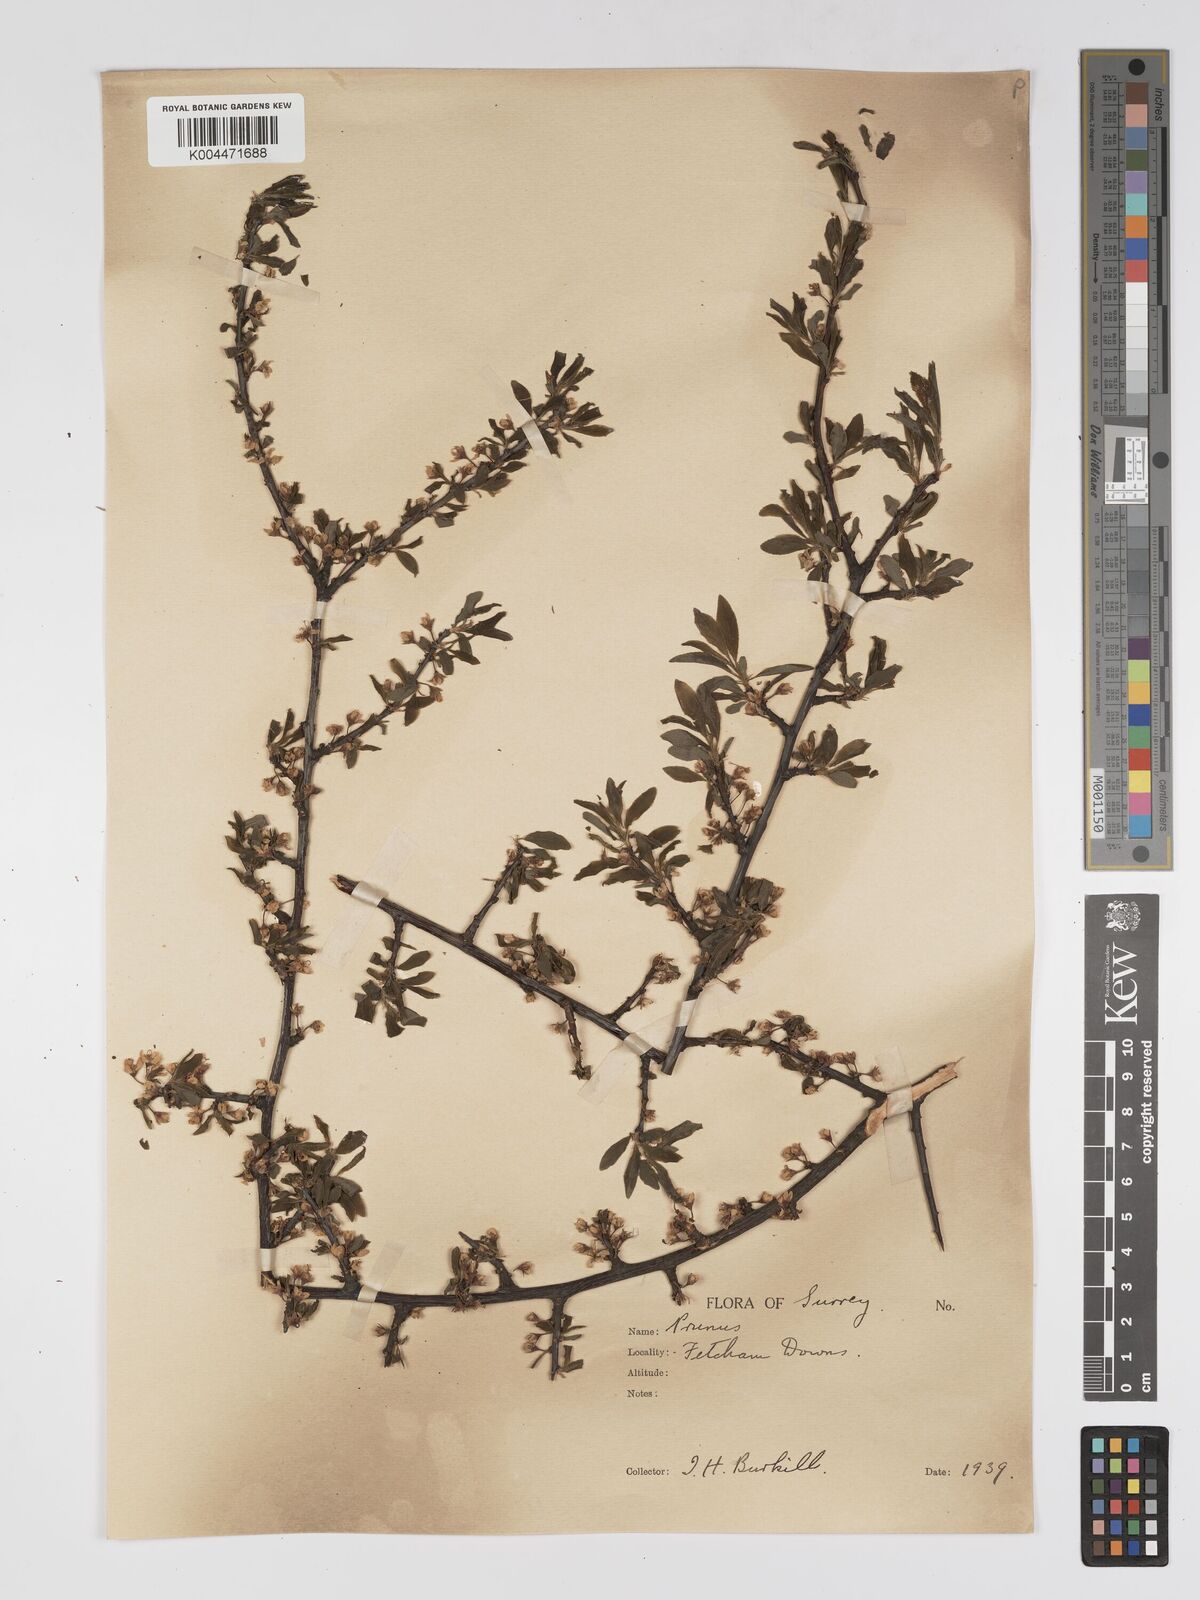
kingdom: Plantae
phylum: Tracheophyta
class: Magnoliopsida
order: Rosales
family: Rosaceae
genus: Prunus
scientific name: Prunus
